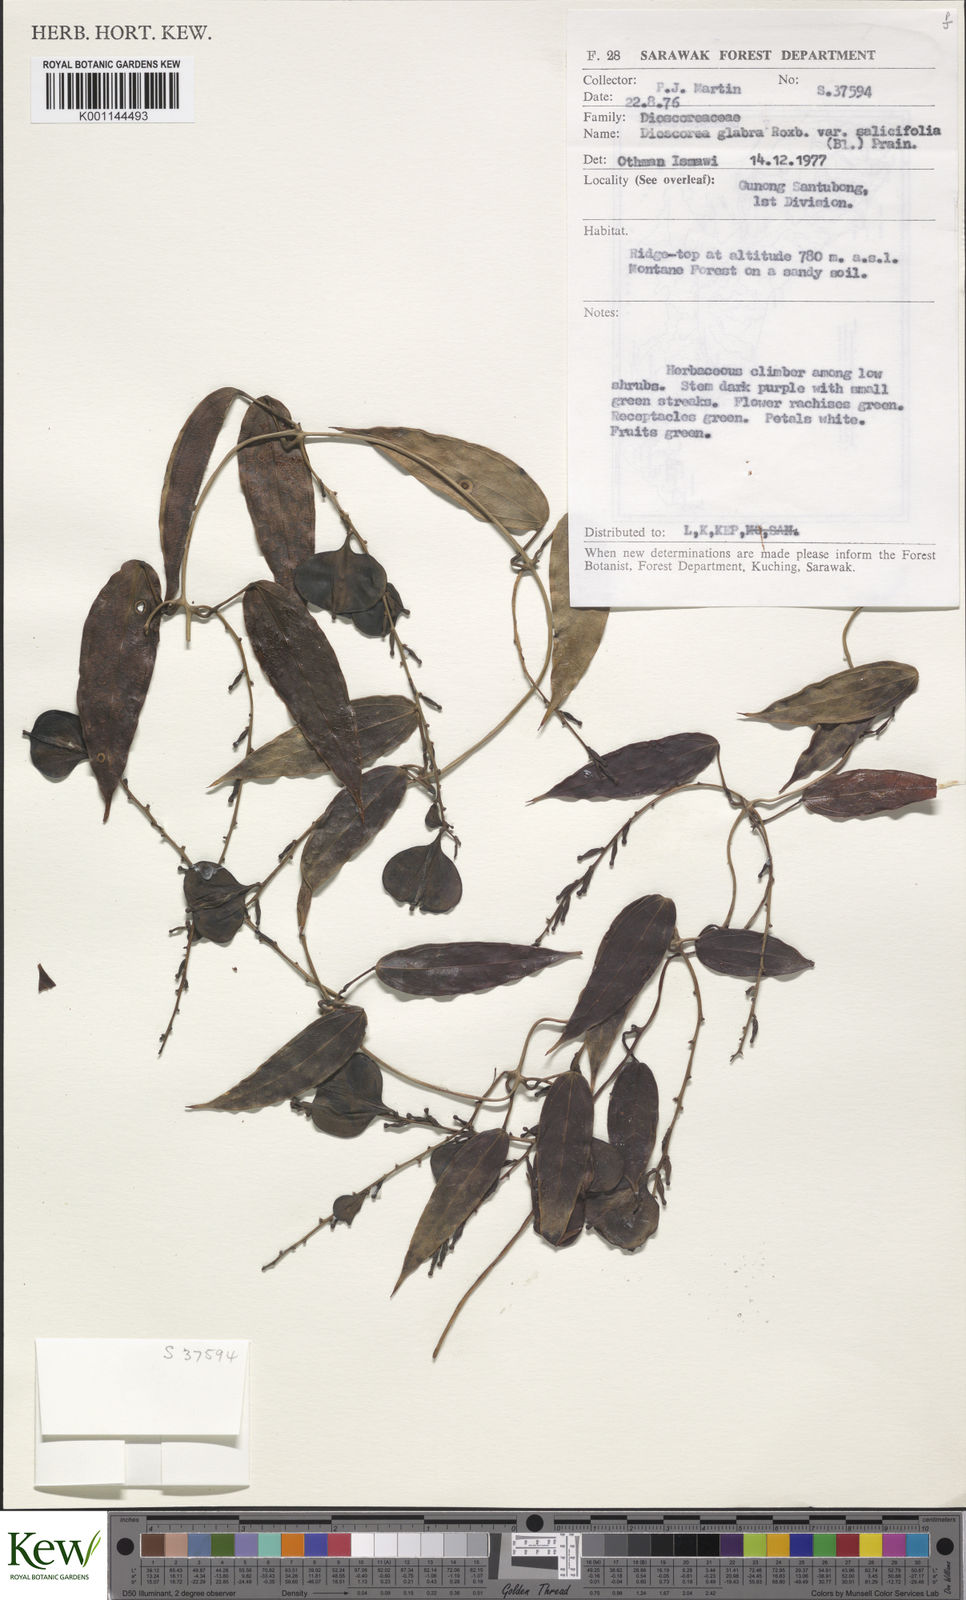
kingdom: Plantae
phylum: Tracheophyta
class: Liliopsida
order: Dioscoreales
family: Dioscoreaceae
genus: Dioscorea
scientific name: Dioscorea salicifolia
